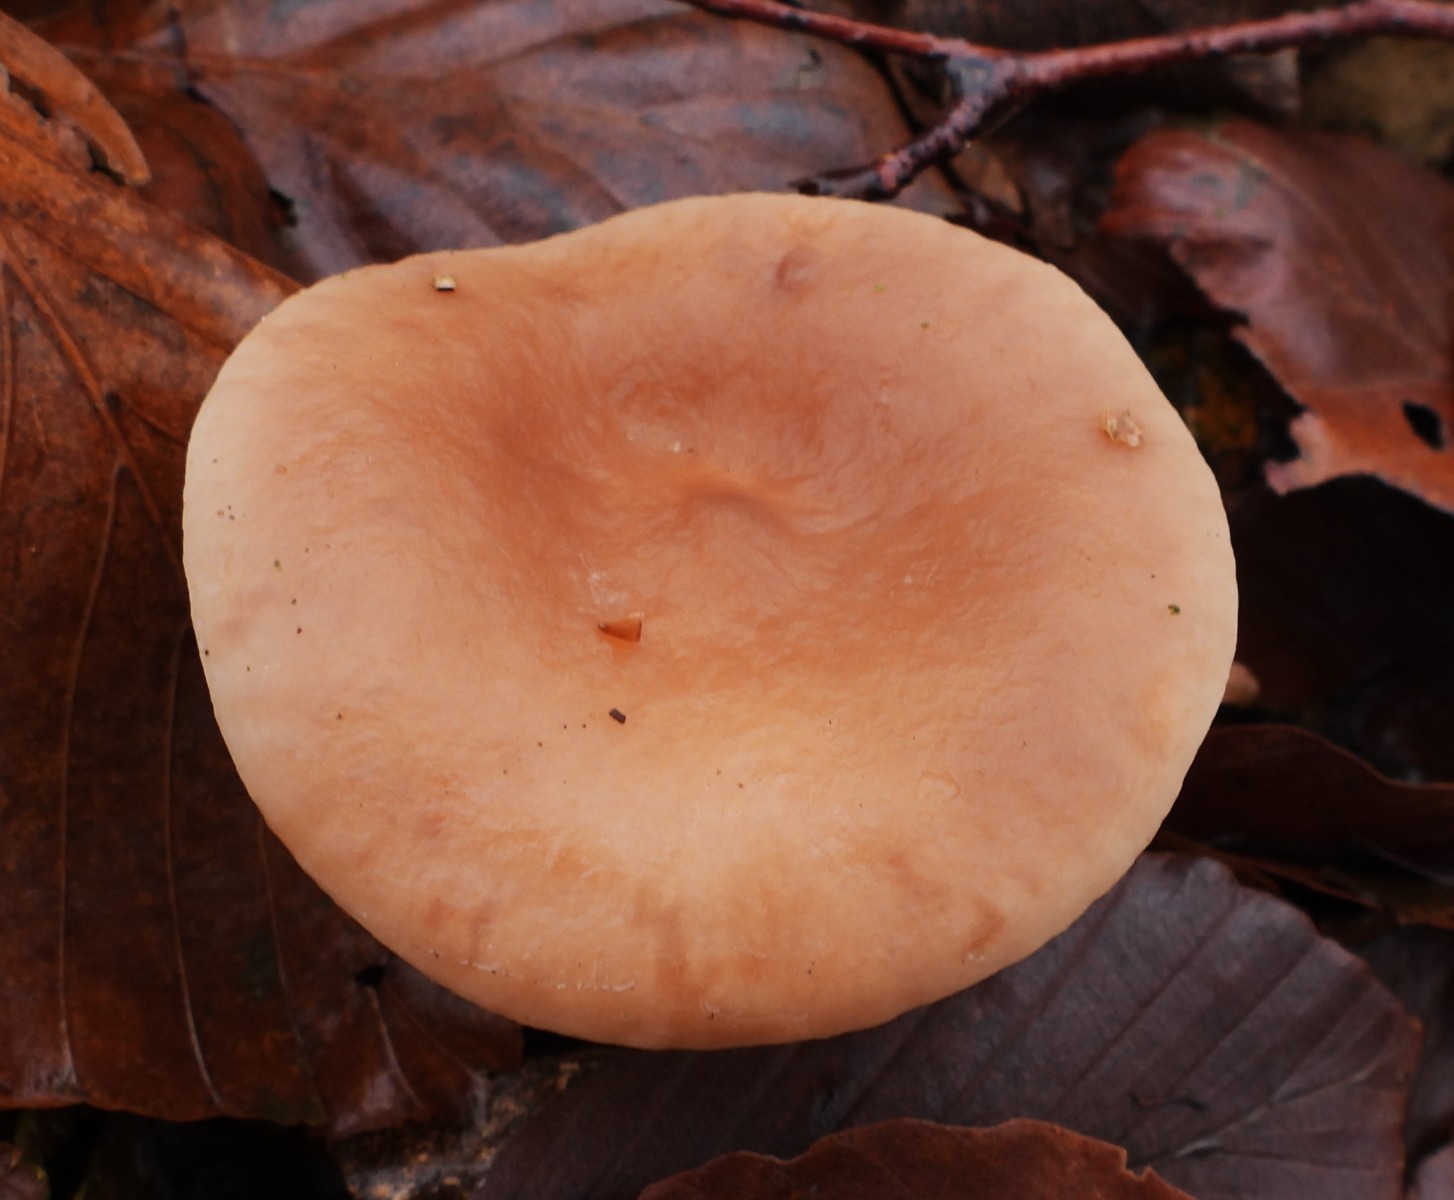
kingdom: Fungi
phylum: Basidiomycota
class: Agaricomycetes
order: Russulales
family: Russulaceae
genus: Lactarius
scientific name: Lactarius subdulcis
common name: sødlig mælkehat
